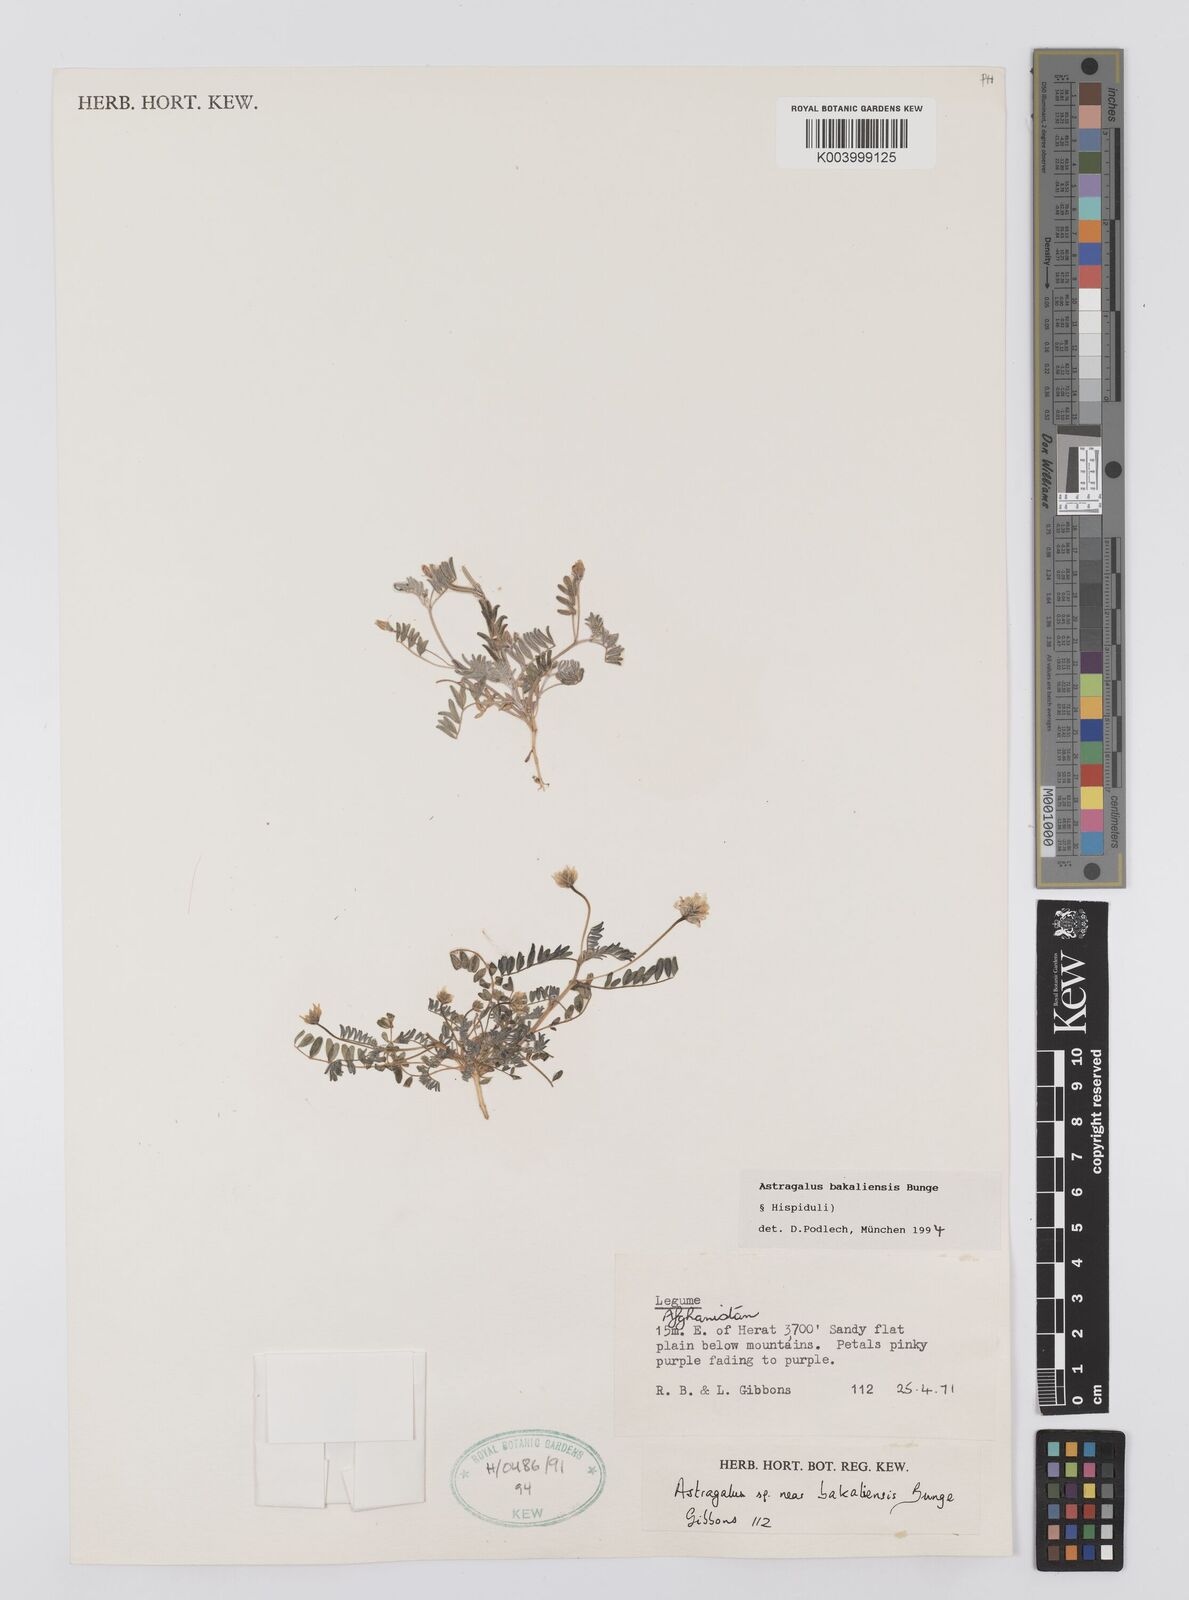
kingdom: Plantae
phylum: Tracheophyta
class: Magnoliopsida
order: Fabales
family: Fabaceae
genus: Astragalus
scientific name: Astragalus bakaliensis
